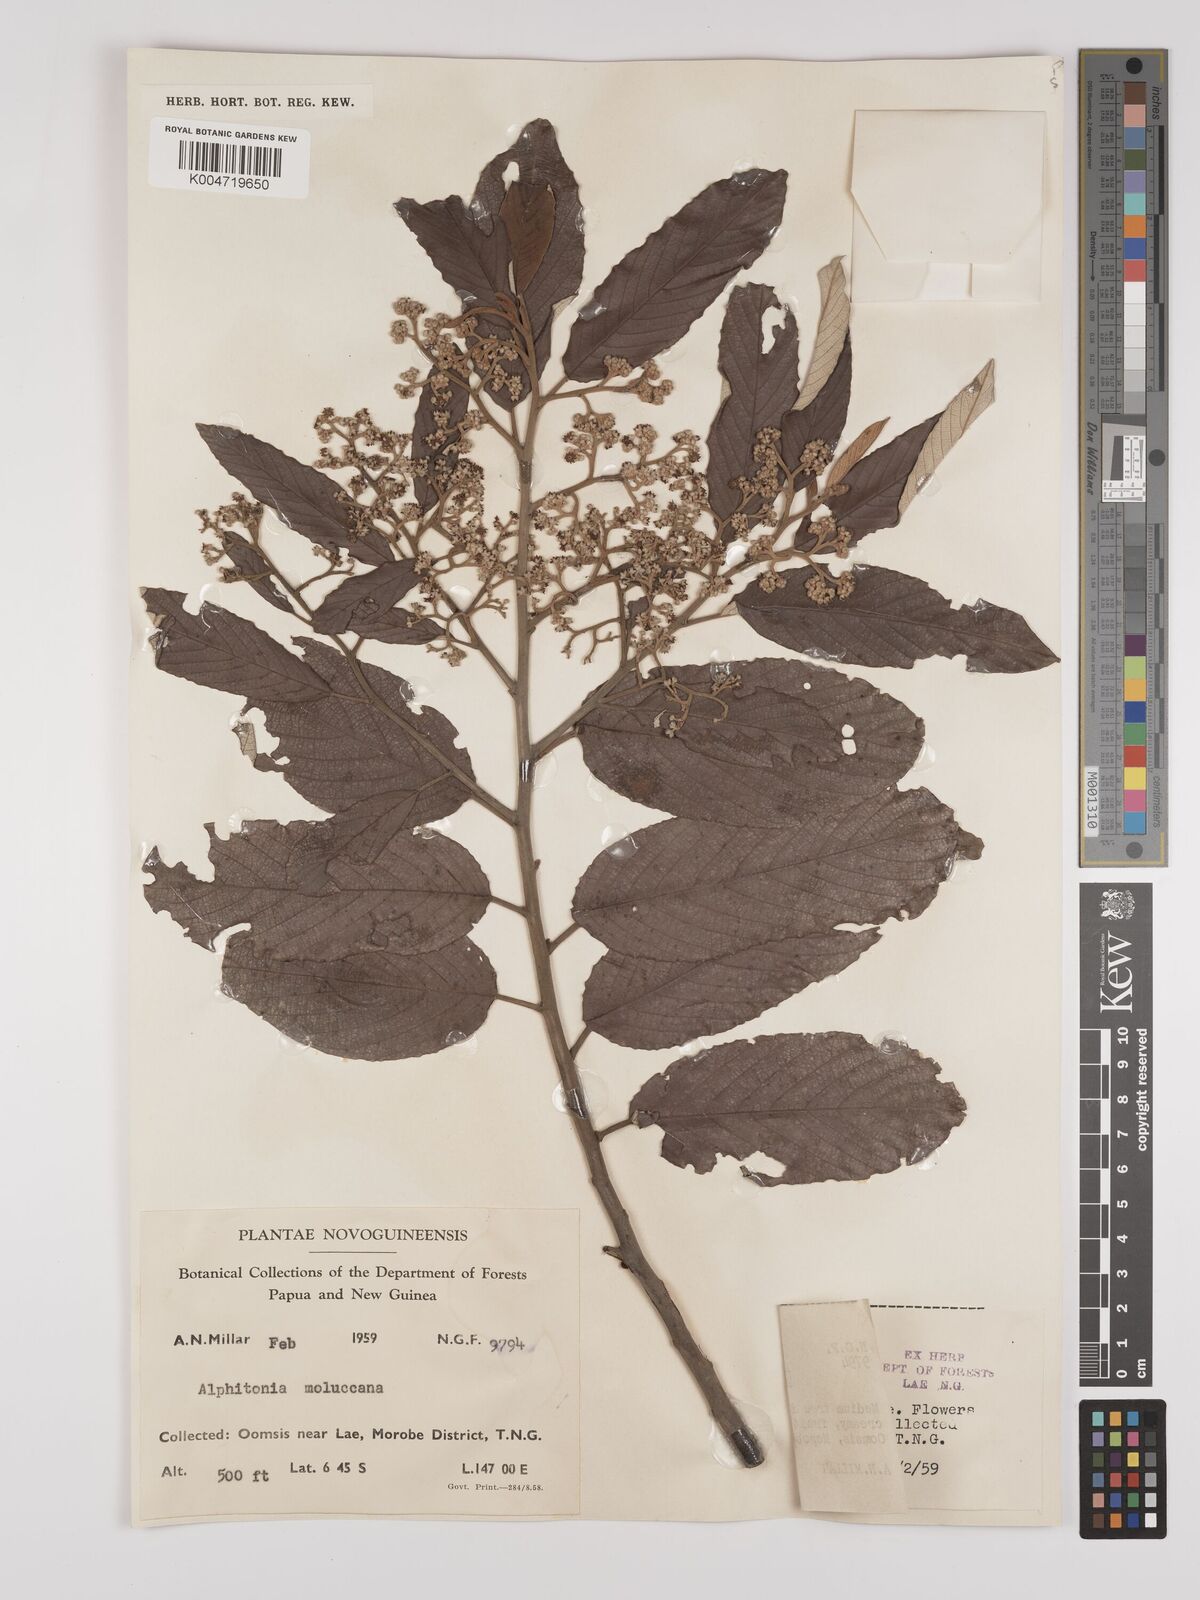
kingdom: Plantae
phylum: Tracheophyta
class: Magnoliopsida
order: Rosales
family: Rhamnaceae
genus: Alphitonia
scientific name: Alphitonia
